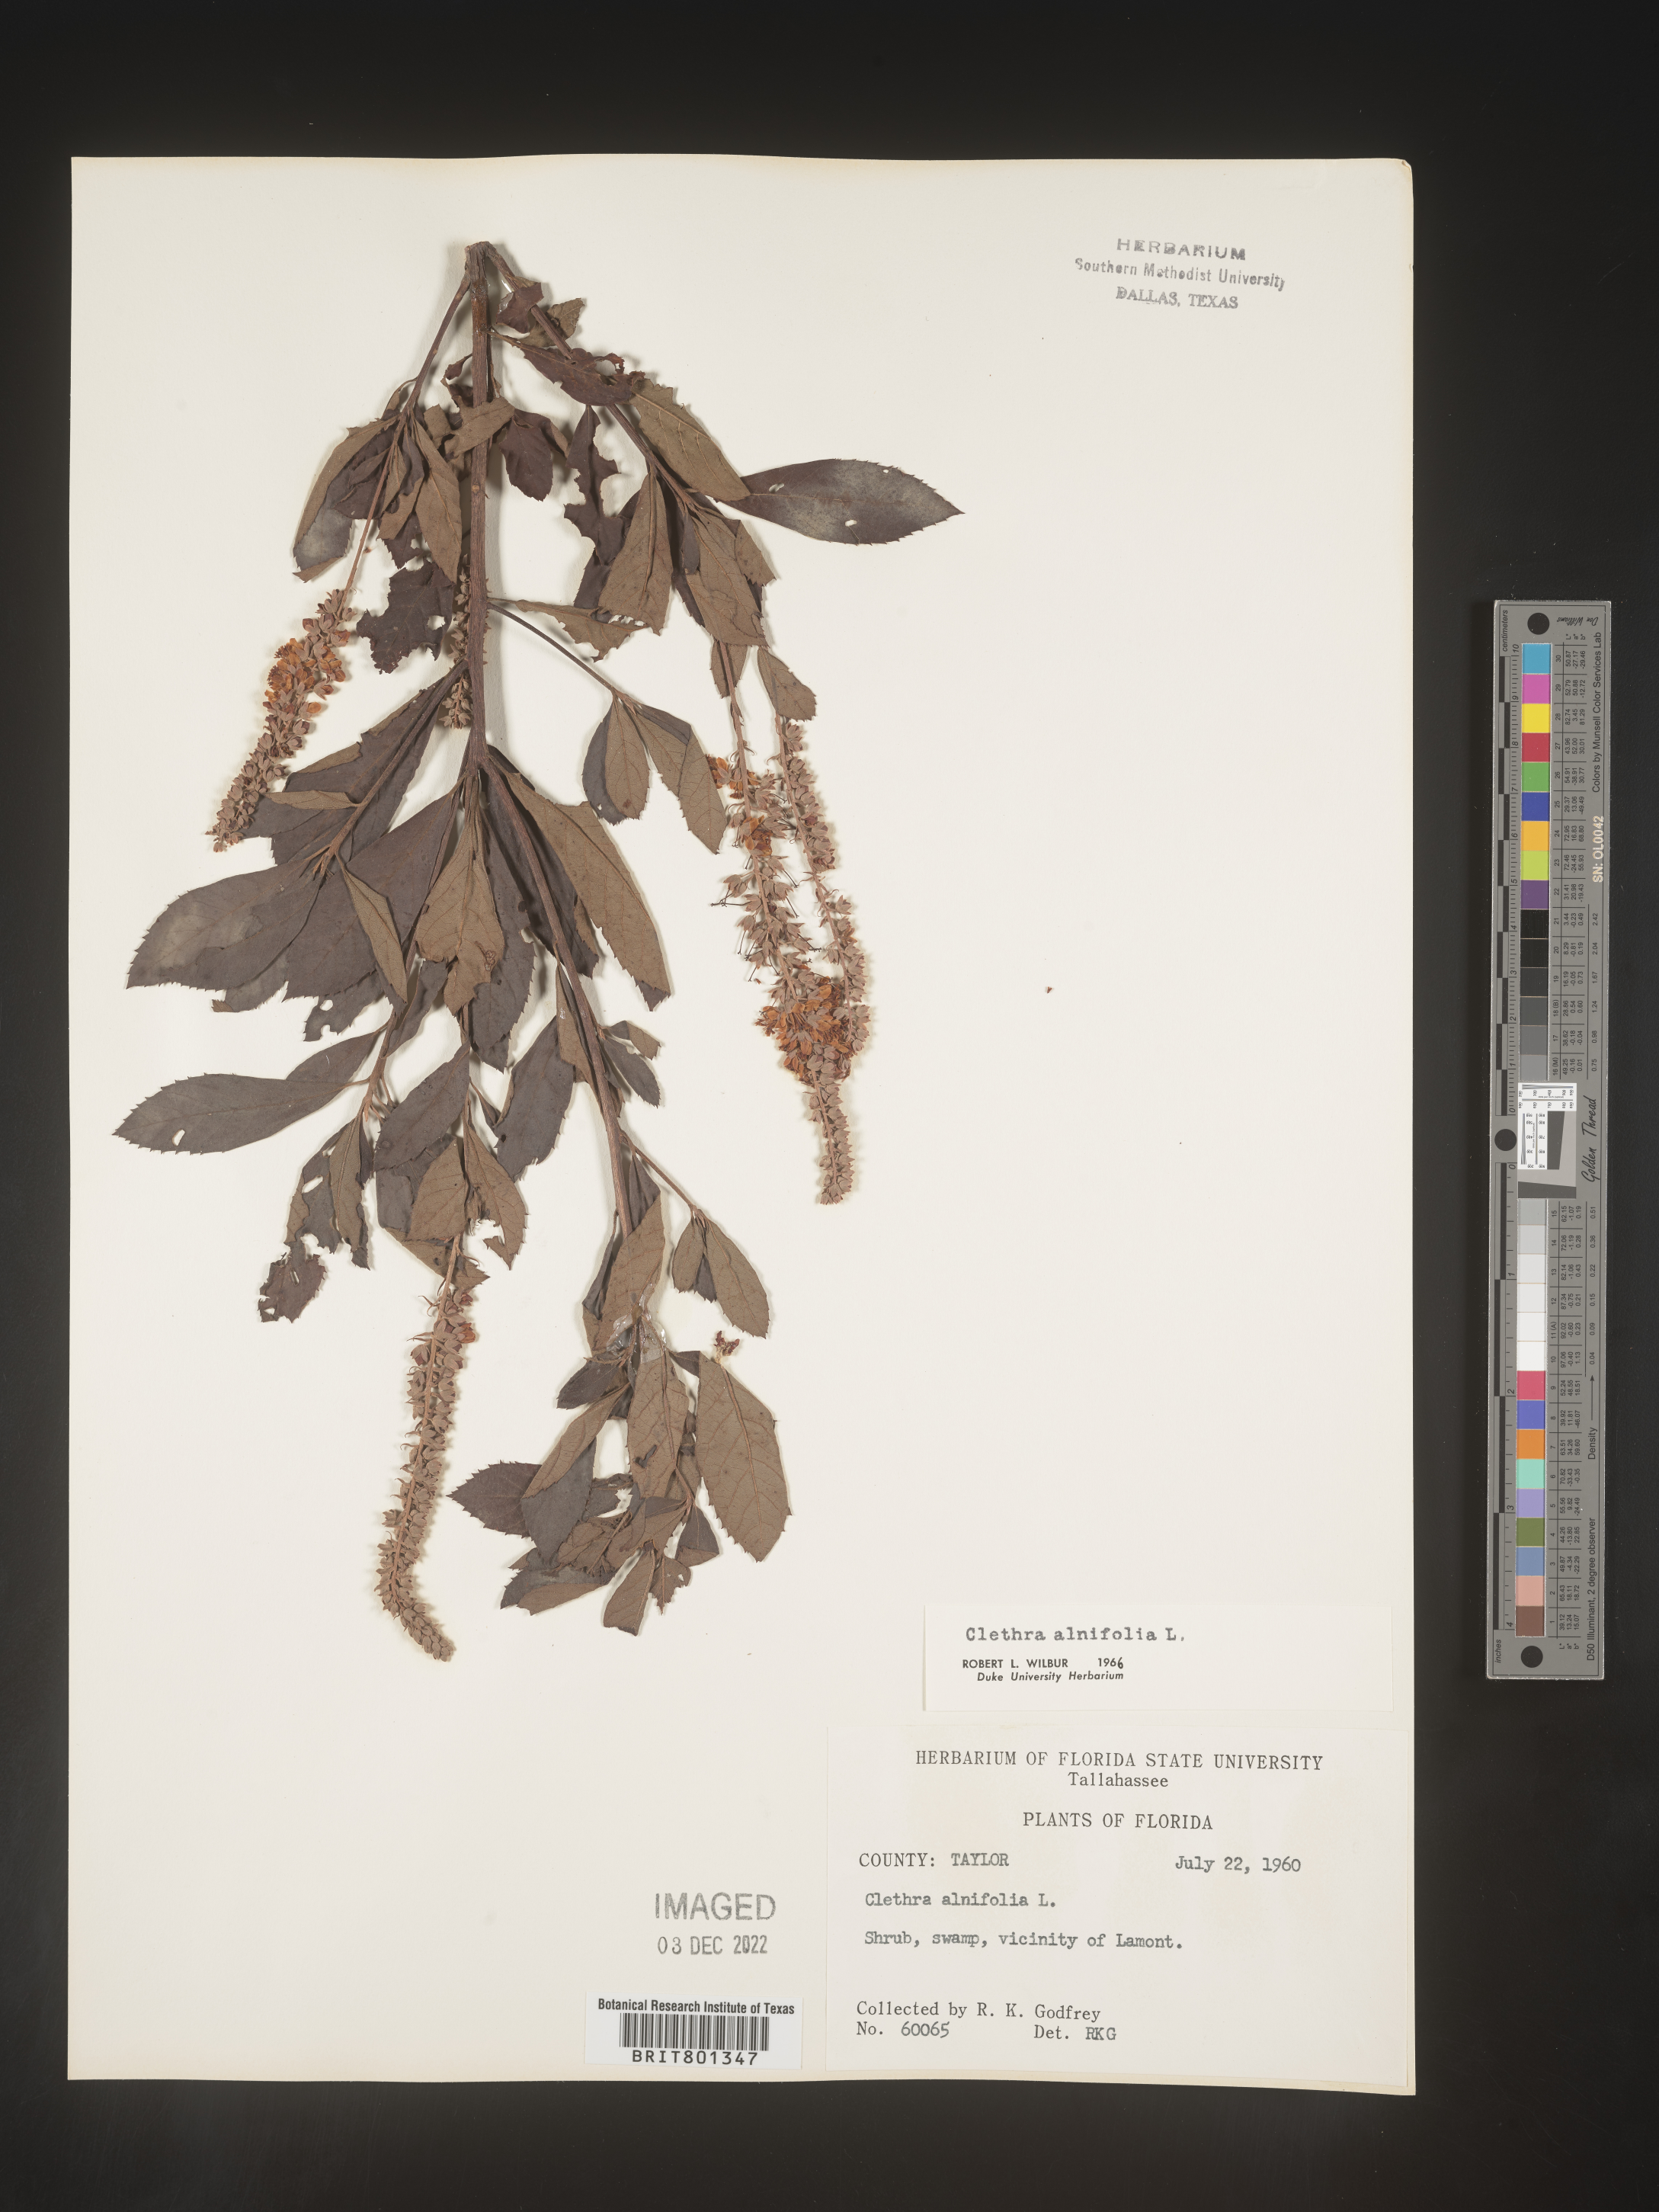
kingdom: Plantae
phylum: Tracheophyta
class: Magnoliopsida
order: Ericales
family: Clethraceae
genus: Clethra
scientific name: Clethra alnifolia
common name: Sweet pepperbush
